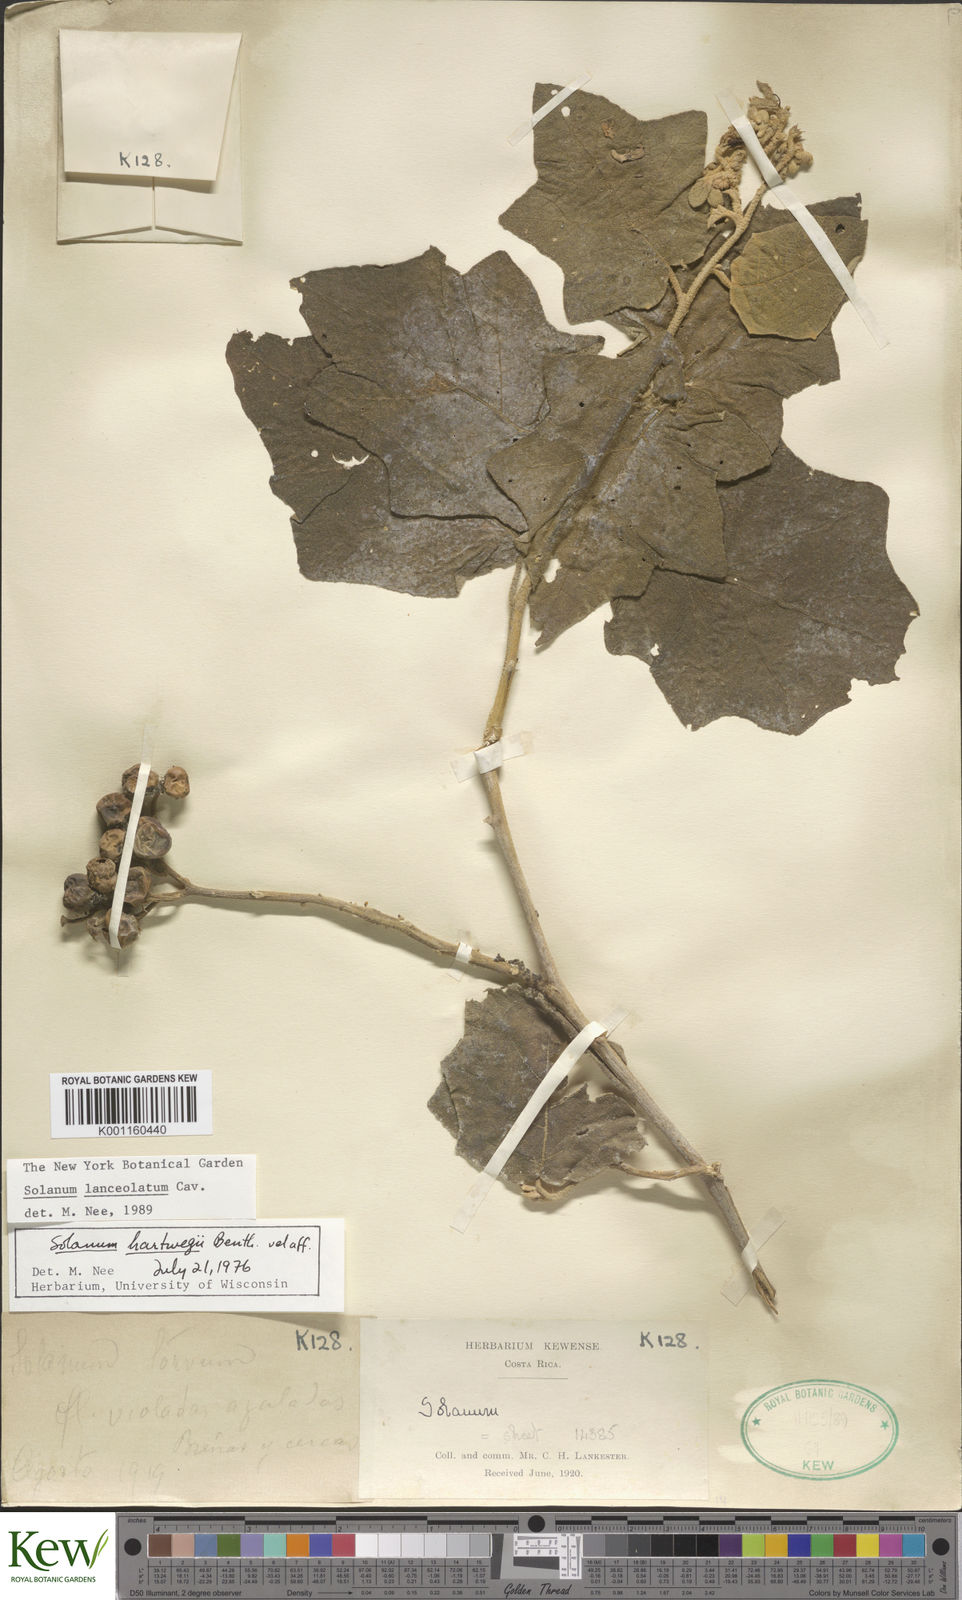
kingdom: Plantae
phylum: Tracheophyta
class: Magnoliopsida
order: Solanales
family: Solanaceae
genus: Solanum
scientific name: Solanum lanceolatum
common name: Orangeberry nightshade
